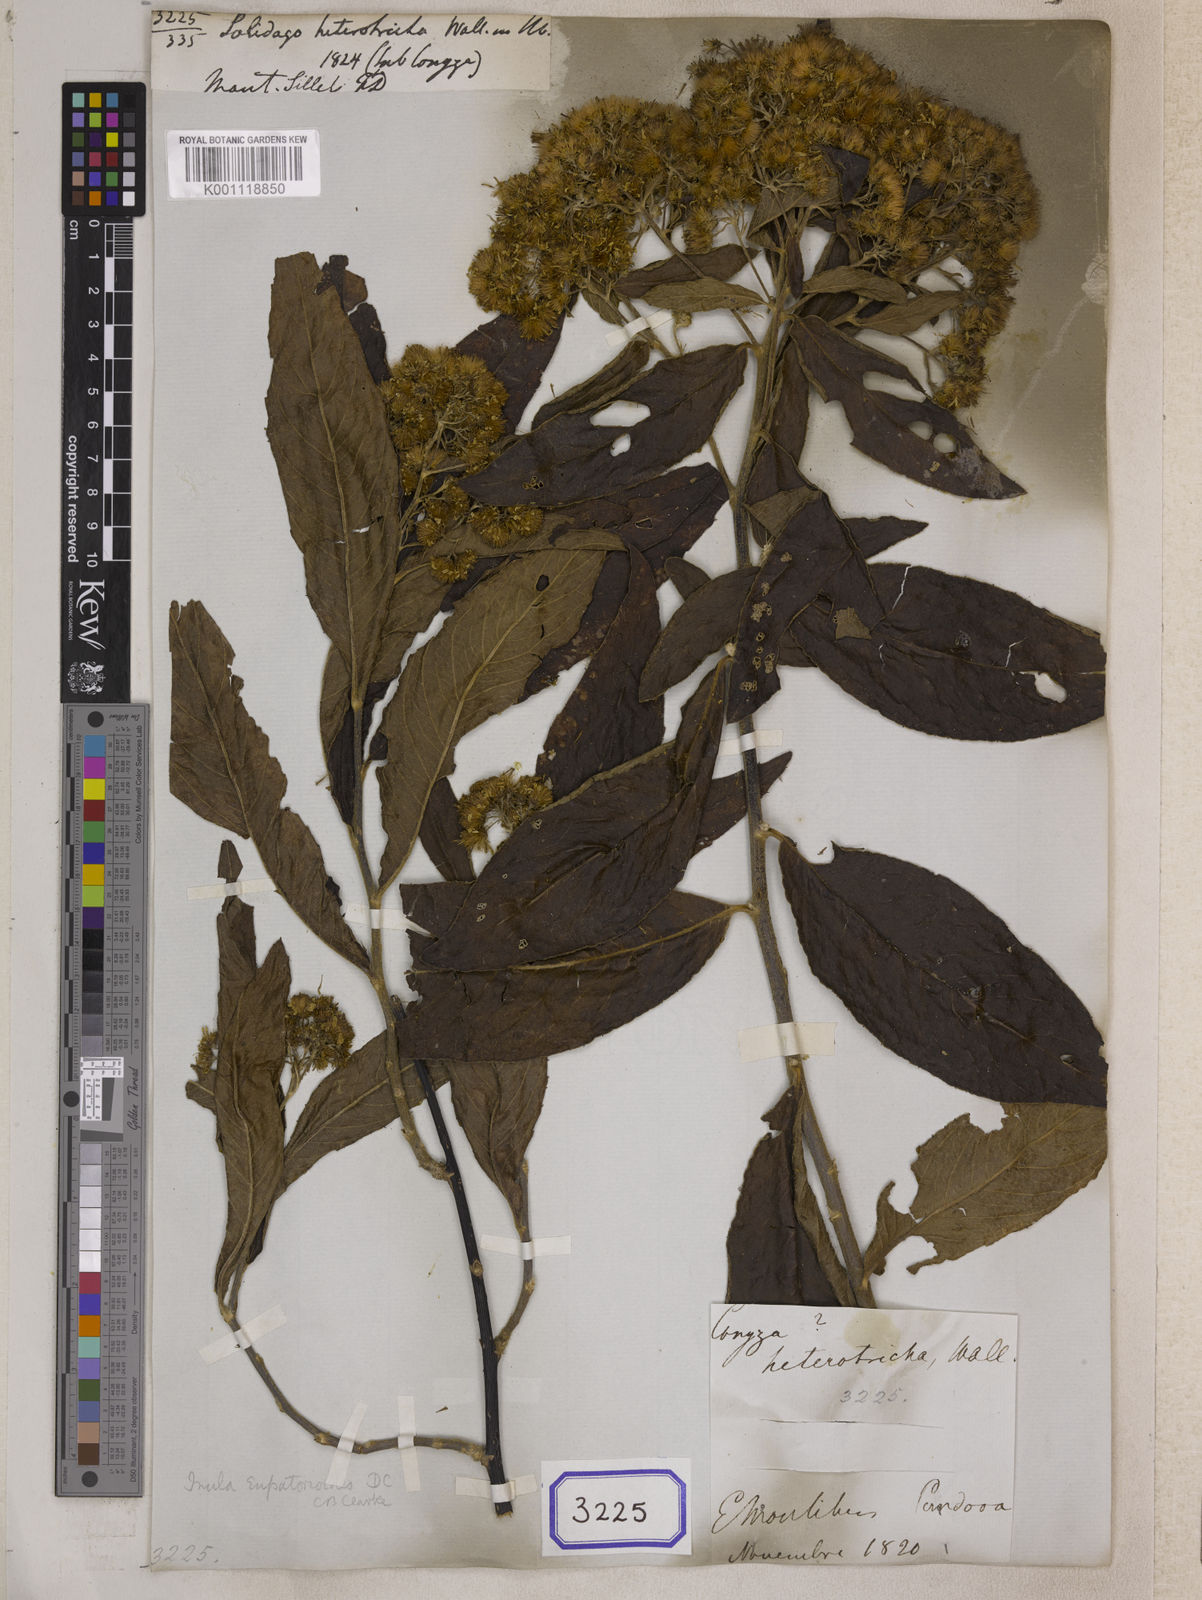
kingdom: Plantae
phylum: Tracheophyta
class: Magnoliopsida
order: Asterales
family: Asteraceae
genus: Duhaldea
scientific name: Duhaldea eupatorioides
